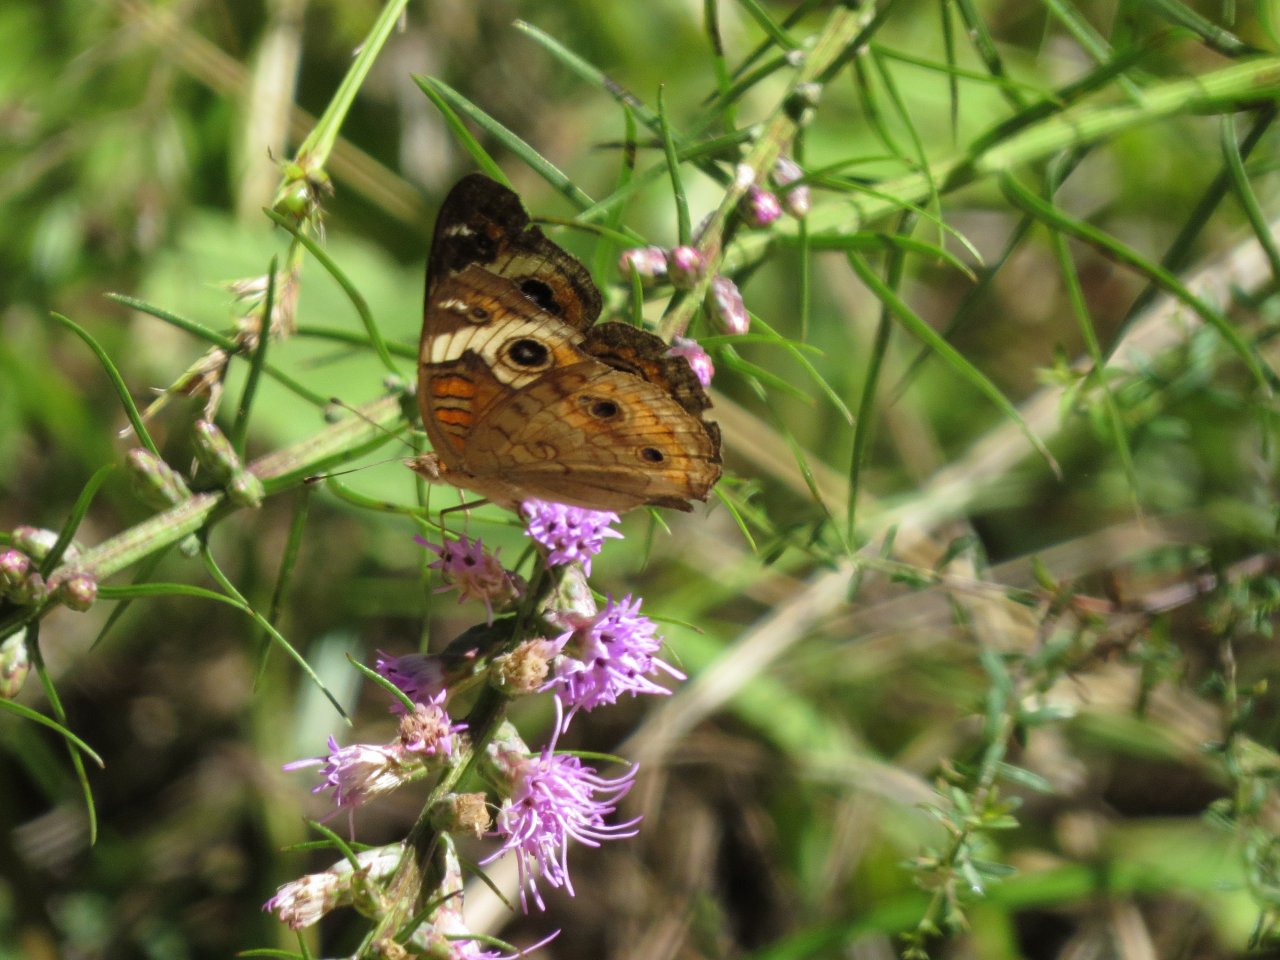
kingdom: Animalia
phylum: Arthropoda
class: Insecta
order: Lepidoptera
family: Nymphalidae
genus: Junonia
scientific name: Junonia coenia
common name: Common Buckeye
